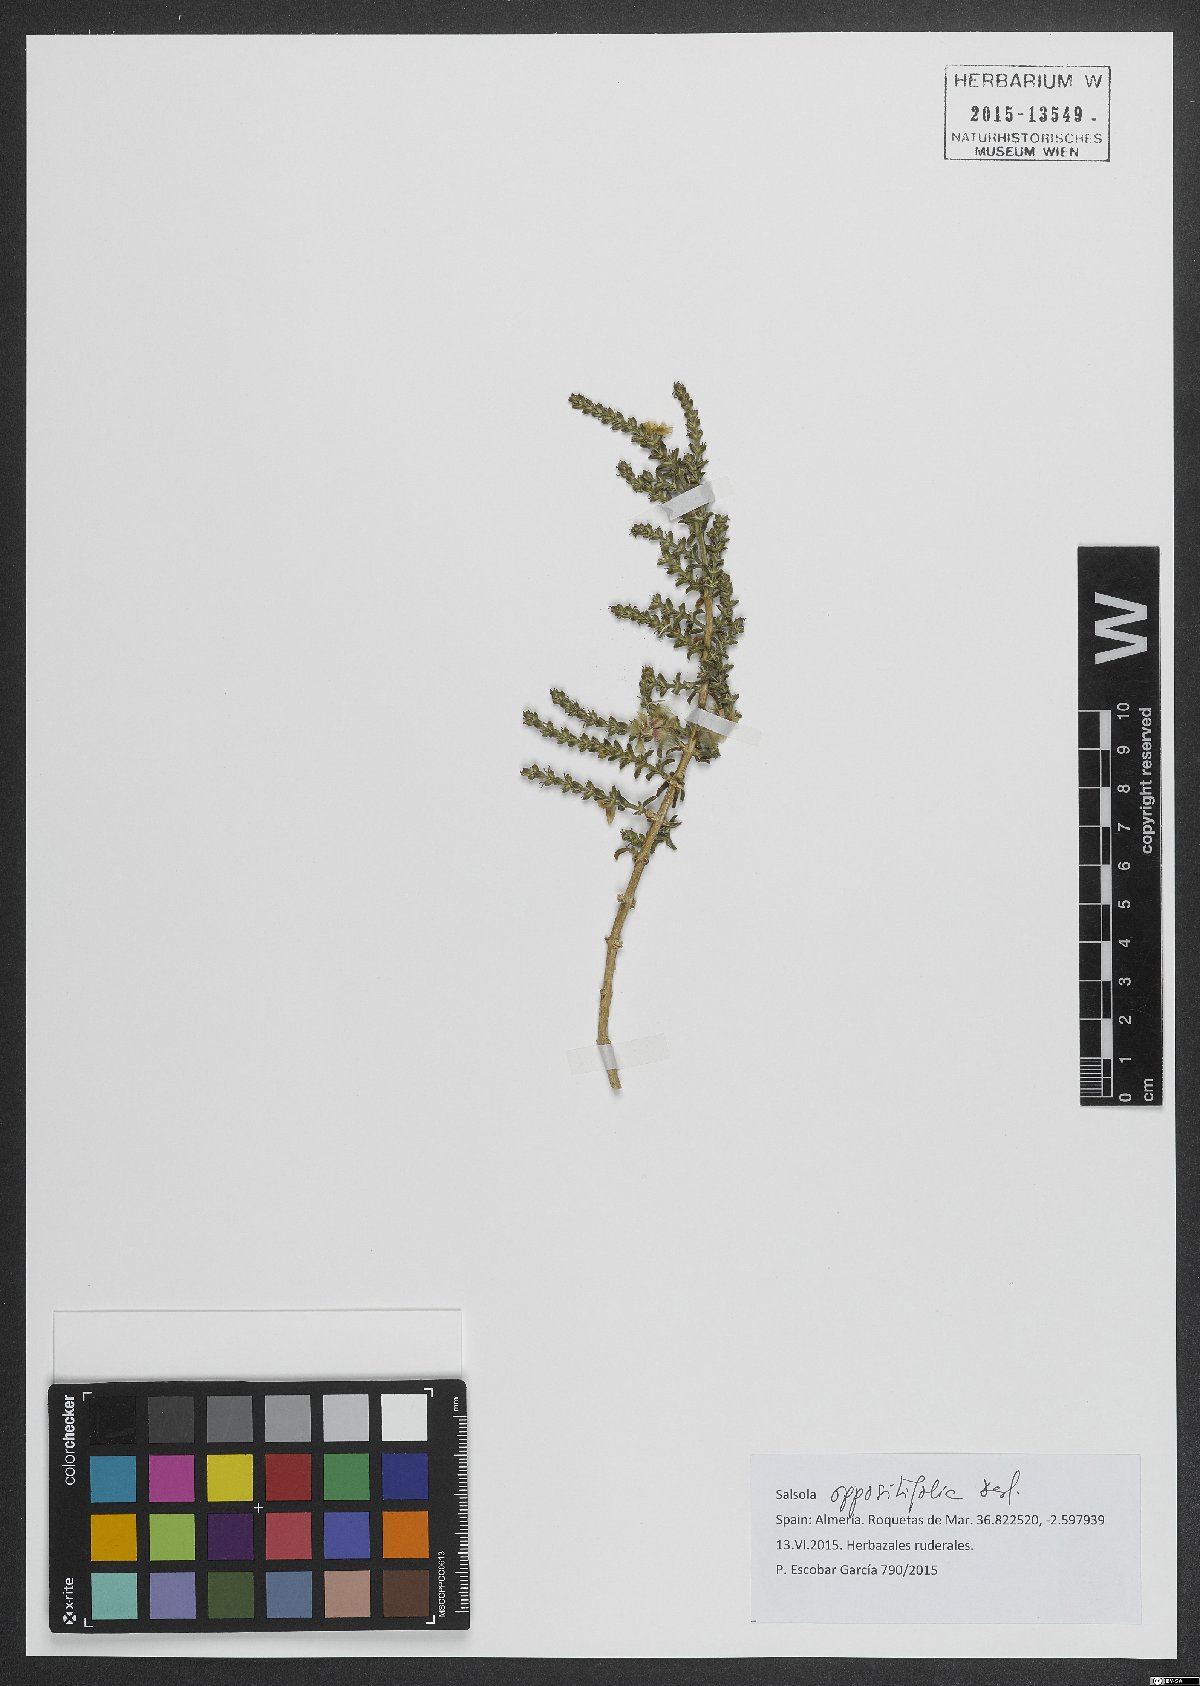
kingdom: Plantae
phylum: Tracheophyta
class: Magnoliopsida
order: Caryophyllales
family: Amaranthaceae
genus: Soda
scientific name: Soda oppositifolia
